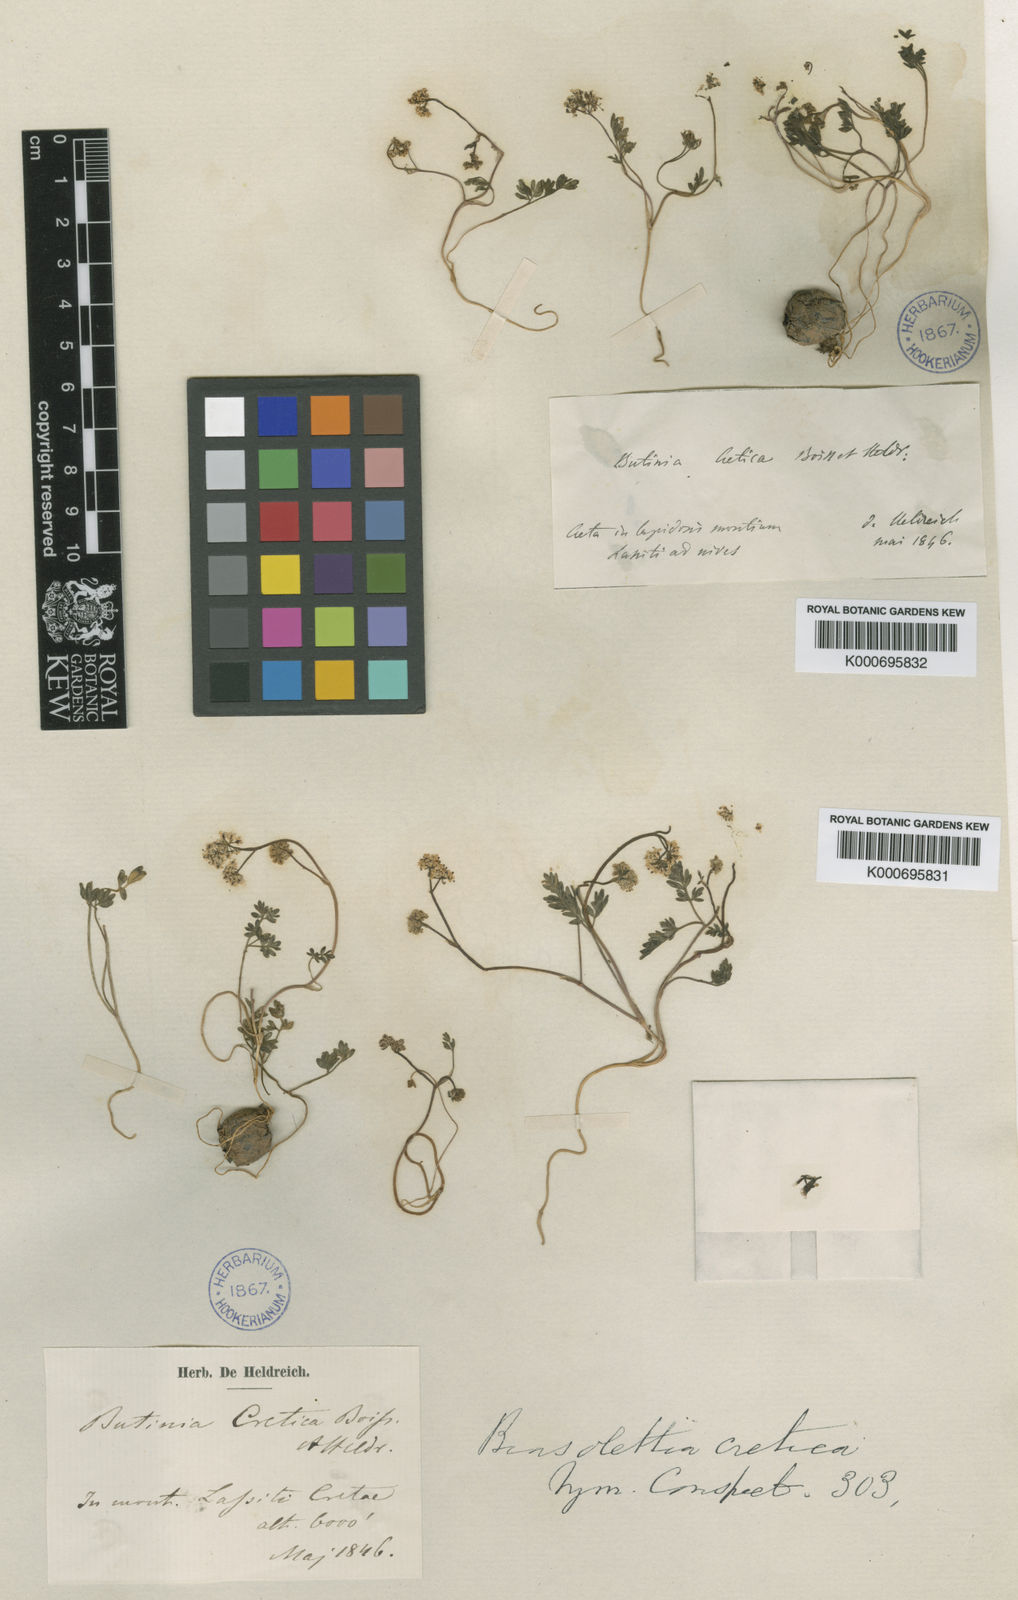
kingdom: Plantae
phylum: Tracheophyta
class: Magnoliopsida
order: Apiales
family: Apiaceae
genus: Geocaryum
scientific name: Geocaryum creticum
